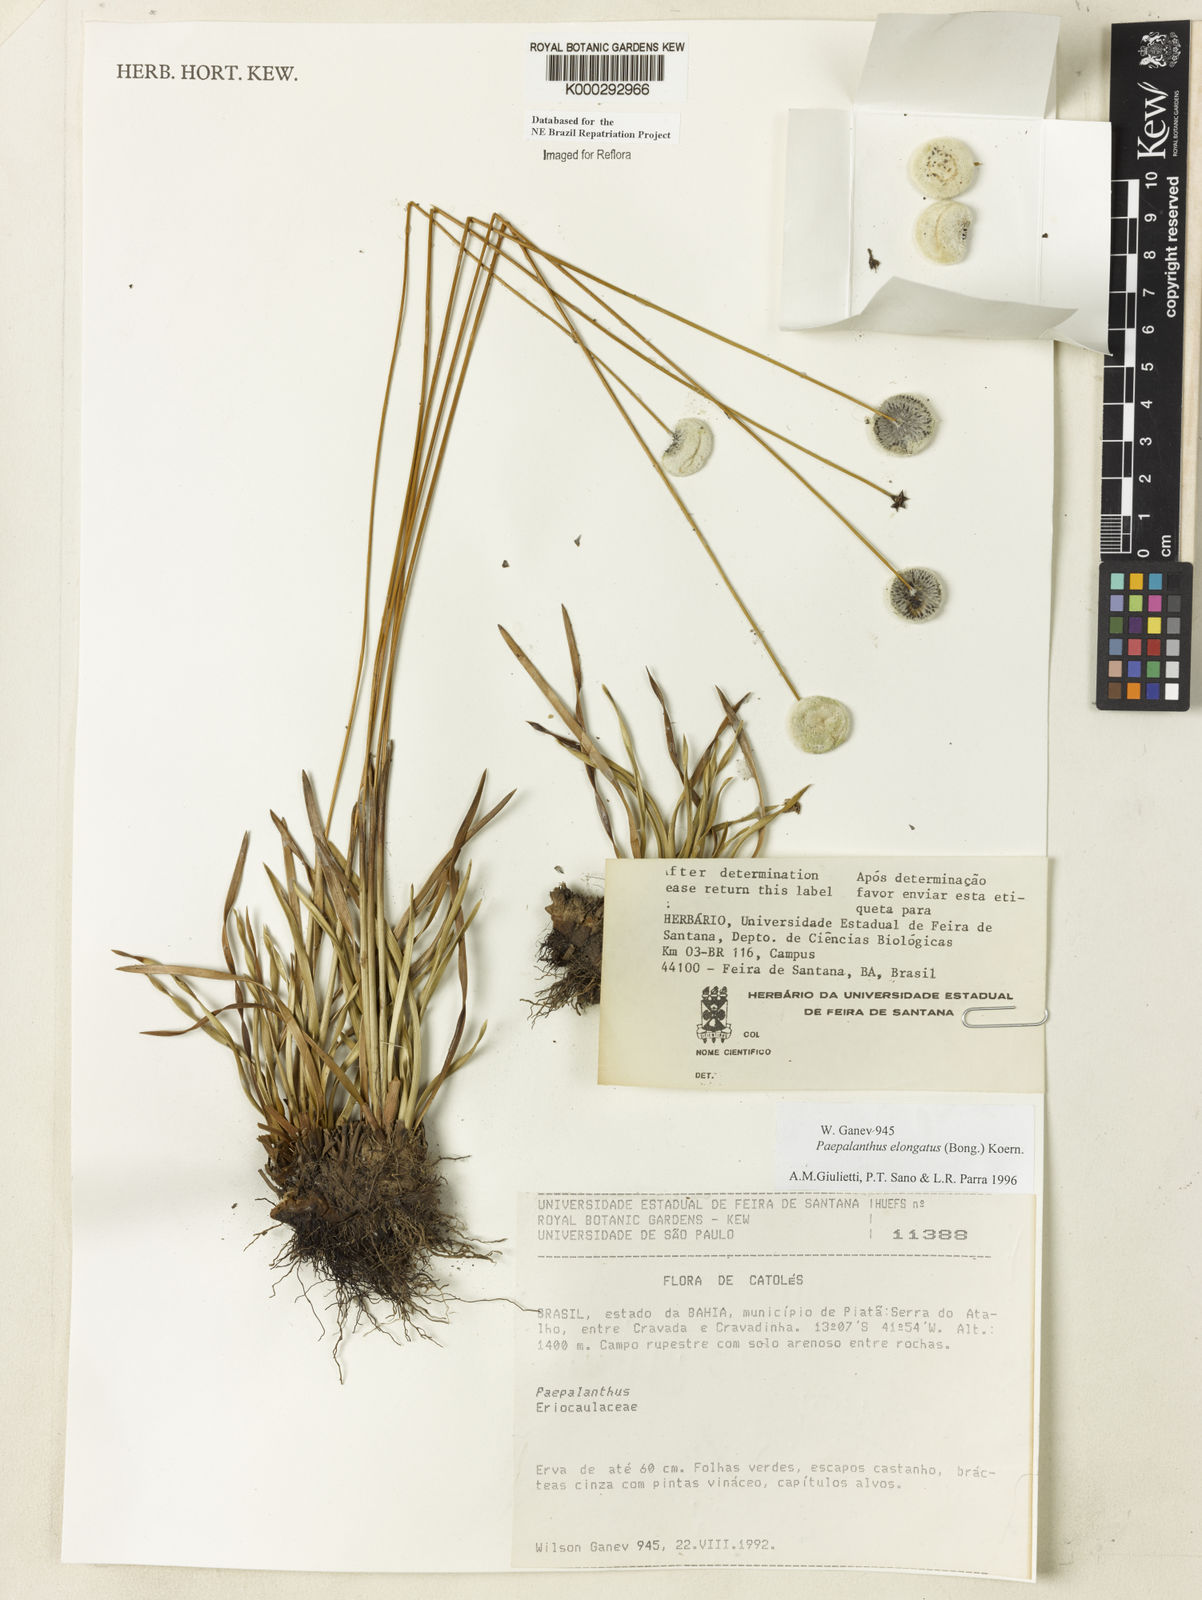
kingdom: Plantae
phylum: Tracheophyta
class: Liliopsida
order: Poales
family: Eriocaulaceae
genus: Paepalanthus
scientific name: Paepalanthus
